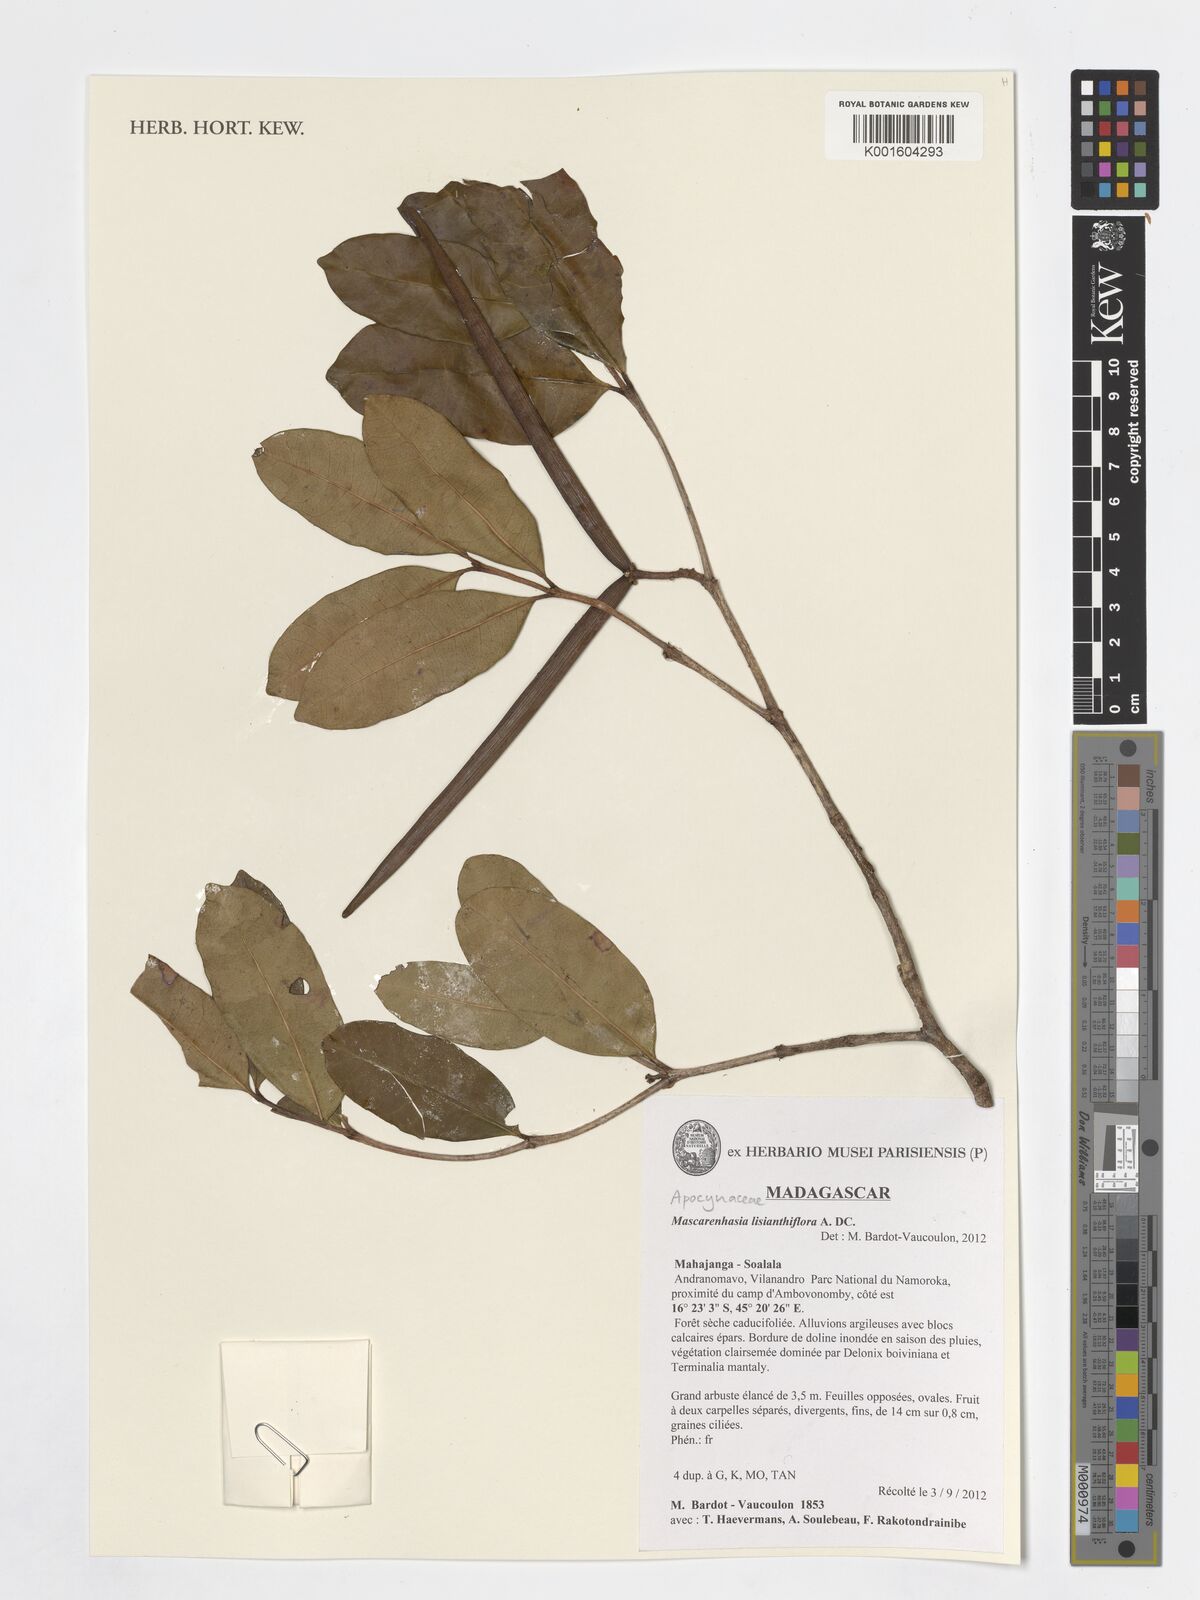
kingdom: Plantae
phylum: Tracheophyta
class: Magnoliopsida
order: Gentianales
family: Apocynaceae
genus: Mascarenhasia
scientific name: Mascarenhasia lisianthiflora
